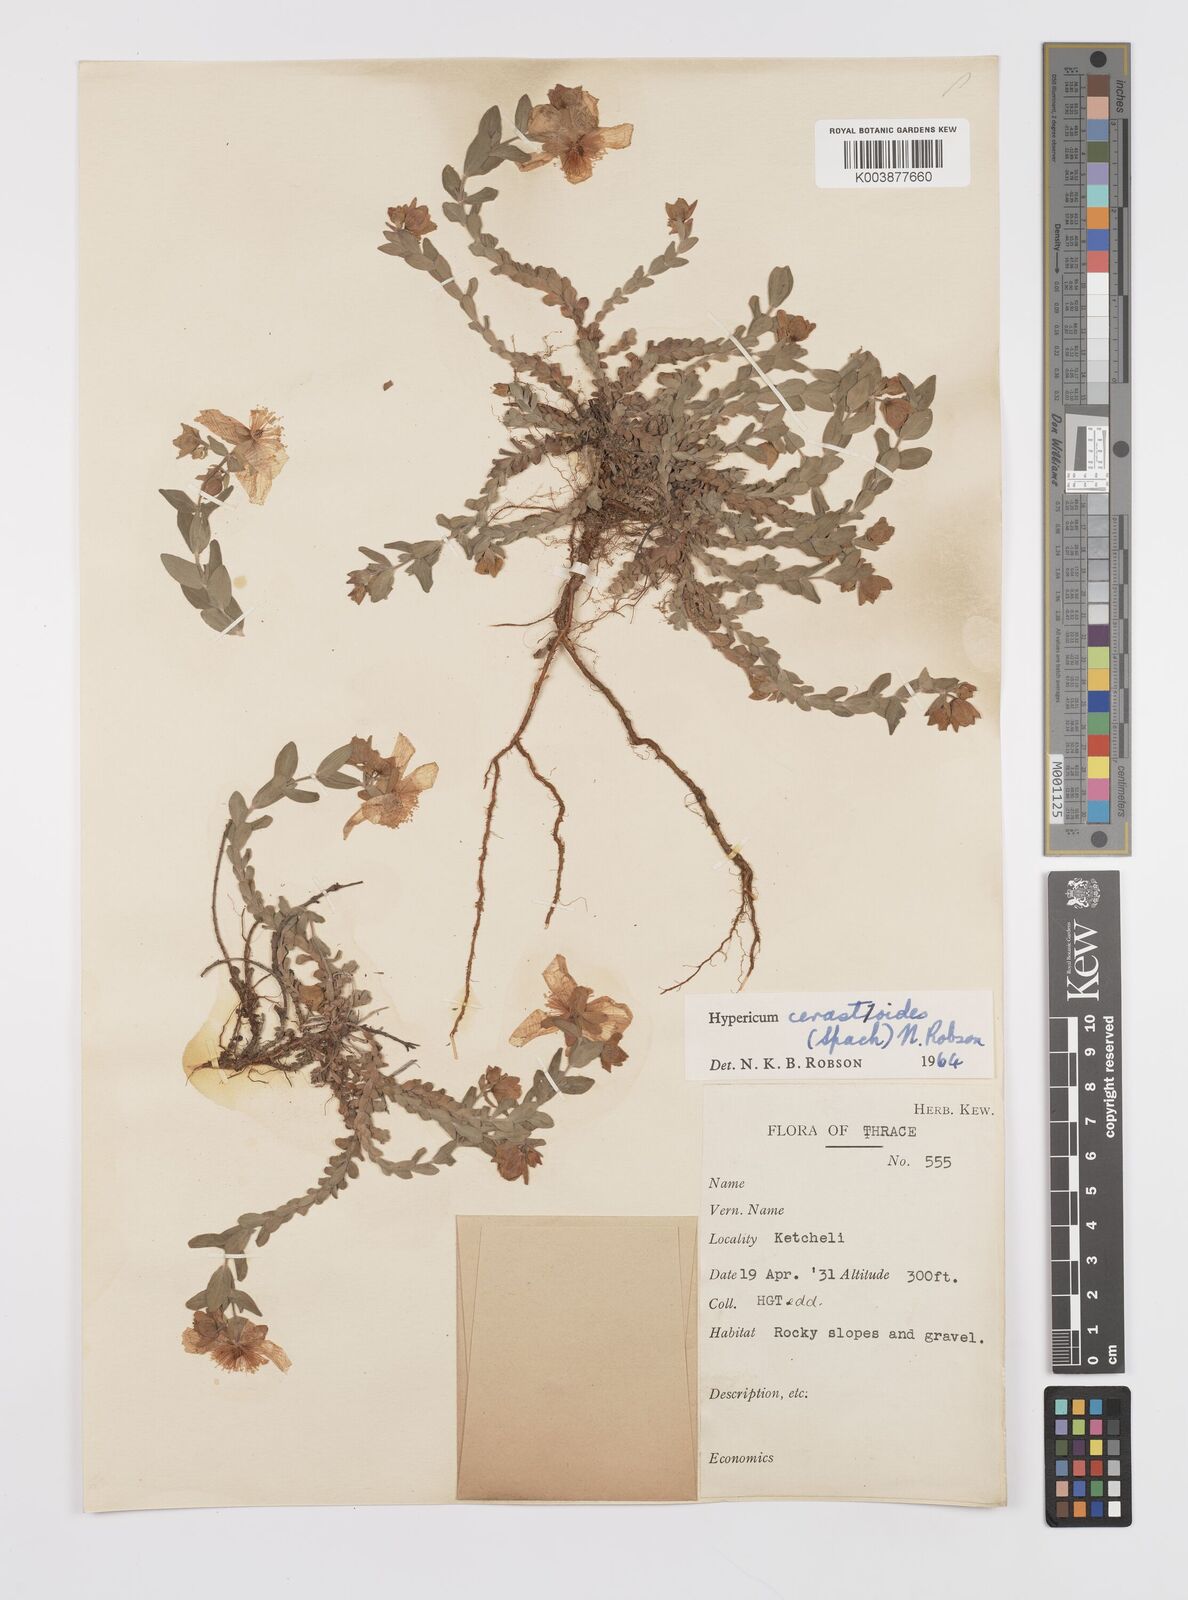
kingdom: Plantae
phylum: Tracheophyta
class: Magnoliopsida
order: Malpighiales
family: Hypericaceae
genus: Hypericum
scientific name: Hypericum cerastoides
